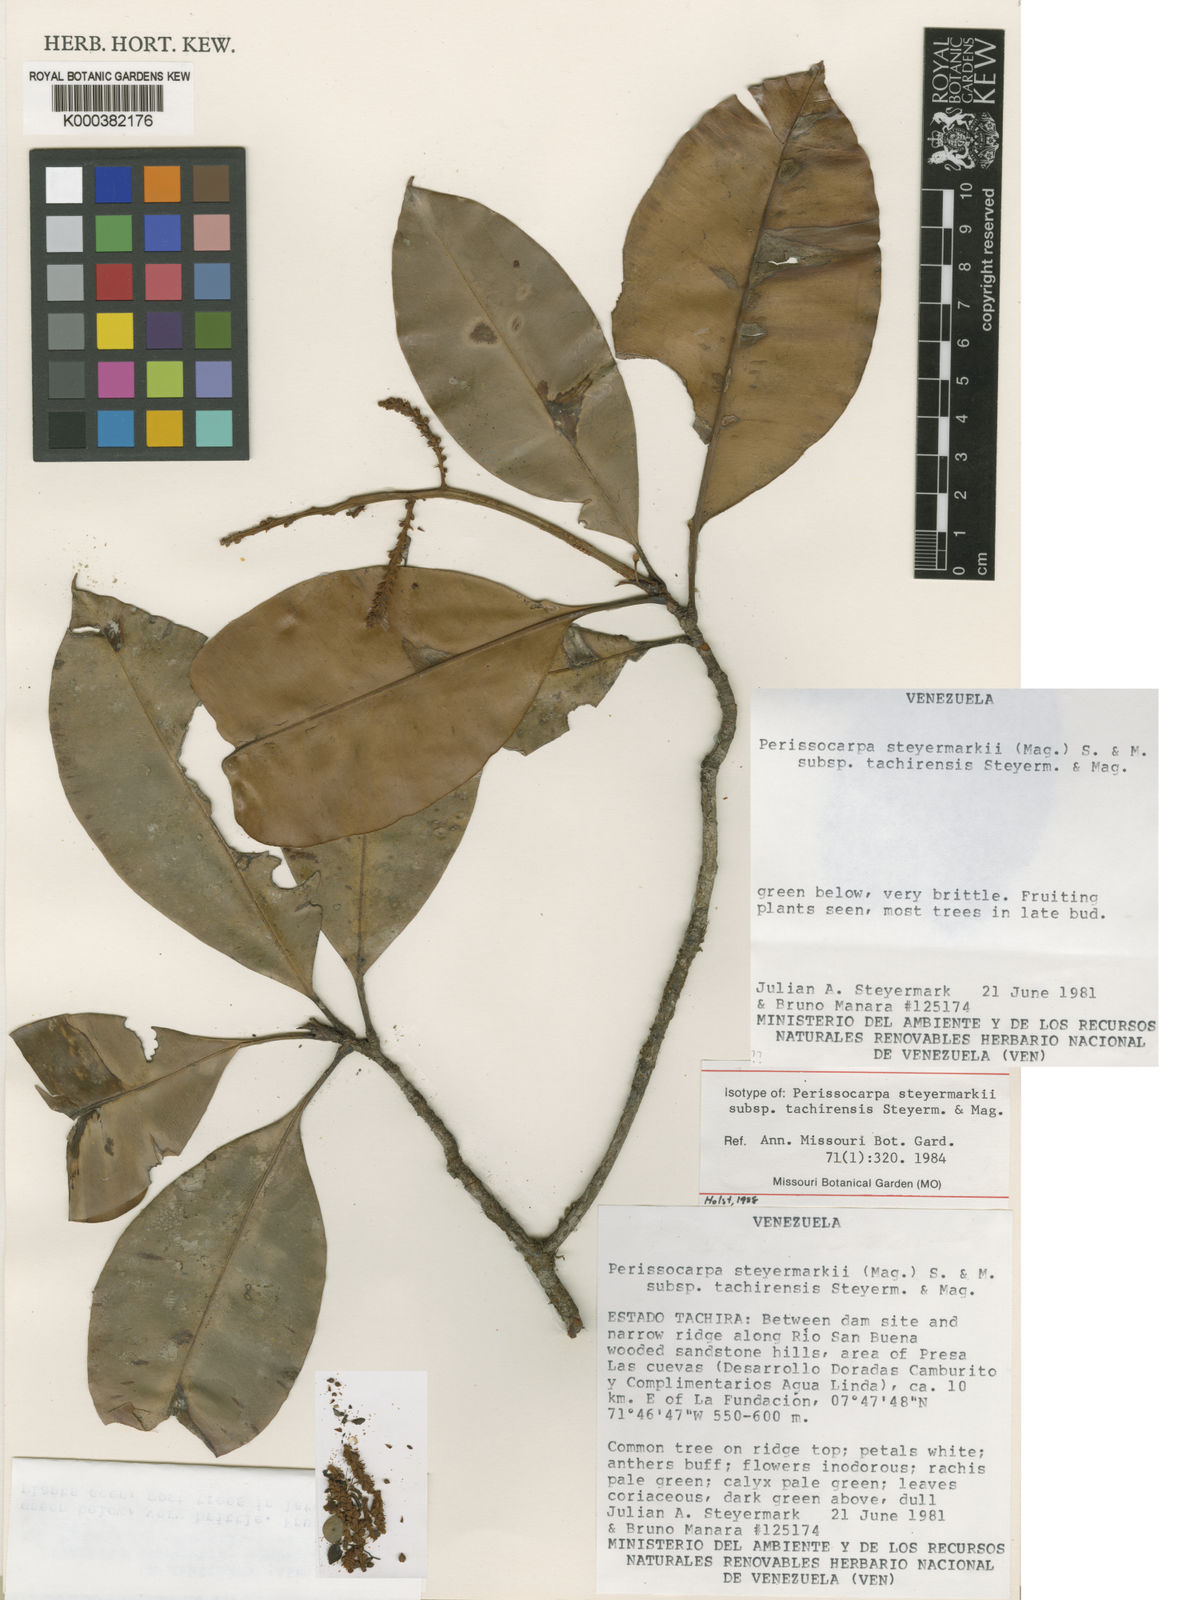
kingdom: Plantae
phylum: Tracheophyta
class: Magnoliopsida
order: Malpighiales
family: Ochnaceae
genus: Perissocarpa
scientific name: Perissocarpa steyermarkii
